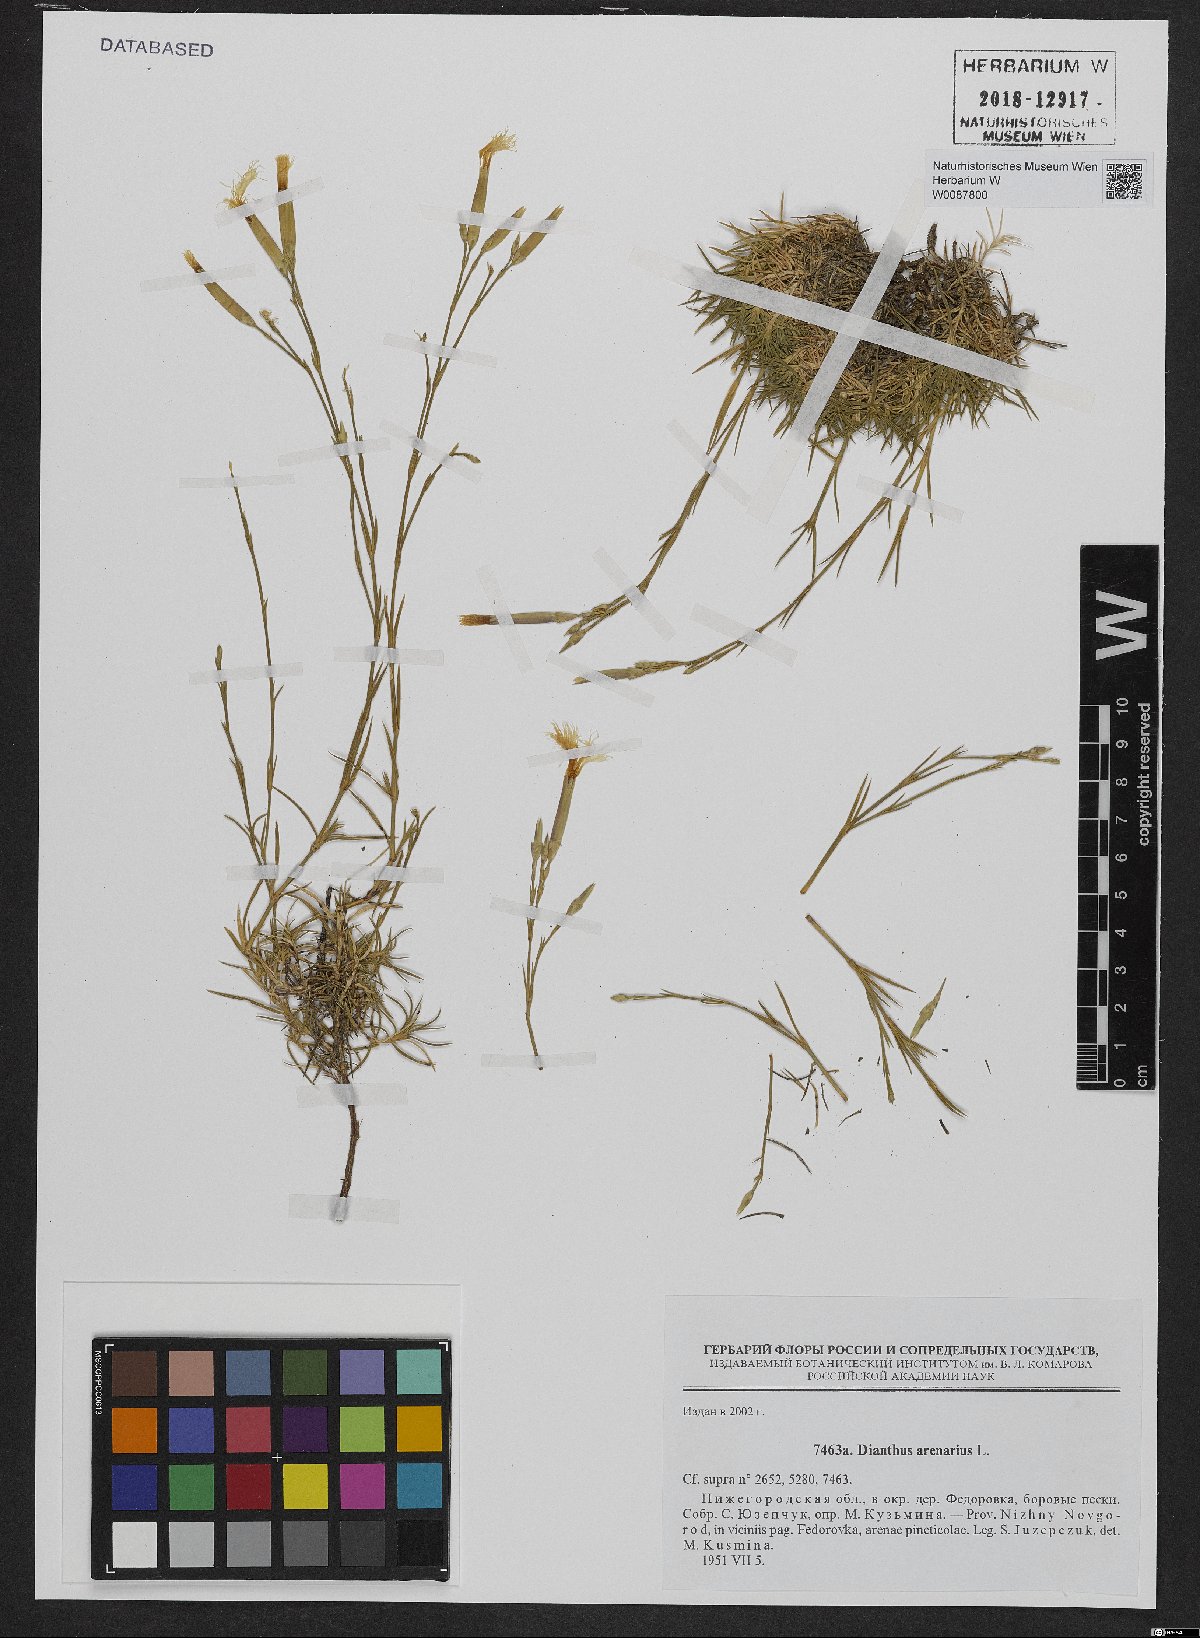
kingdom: Plantae
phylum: Tracheophyta
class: Magnoliopsida
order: Caryophyllales
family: Caryophyllaceae
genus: Dianthus
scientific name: Dianthus arenarius
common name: Stone pink
